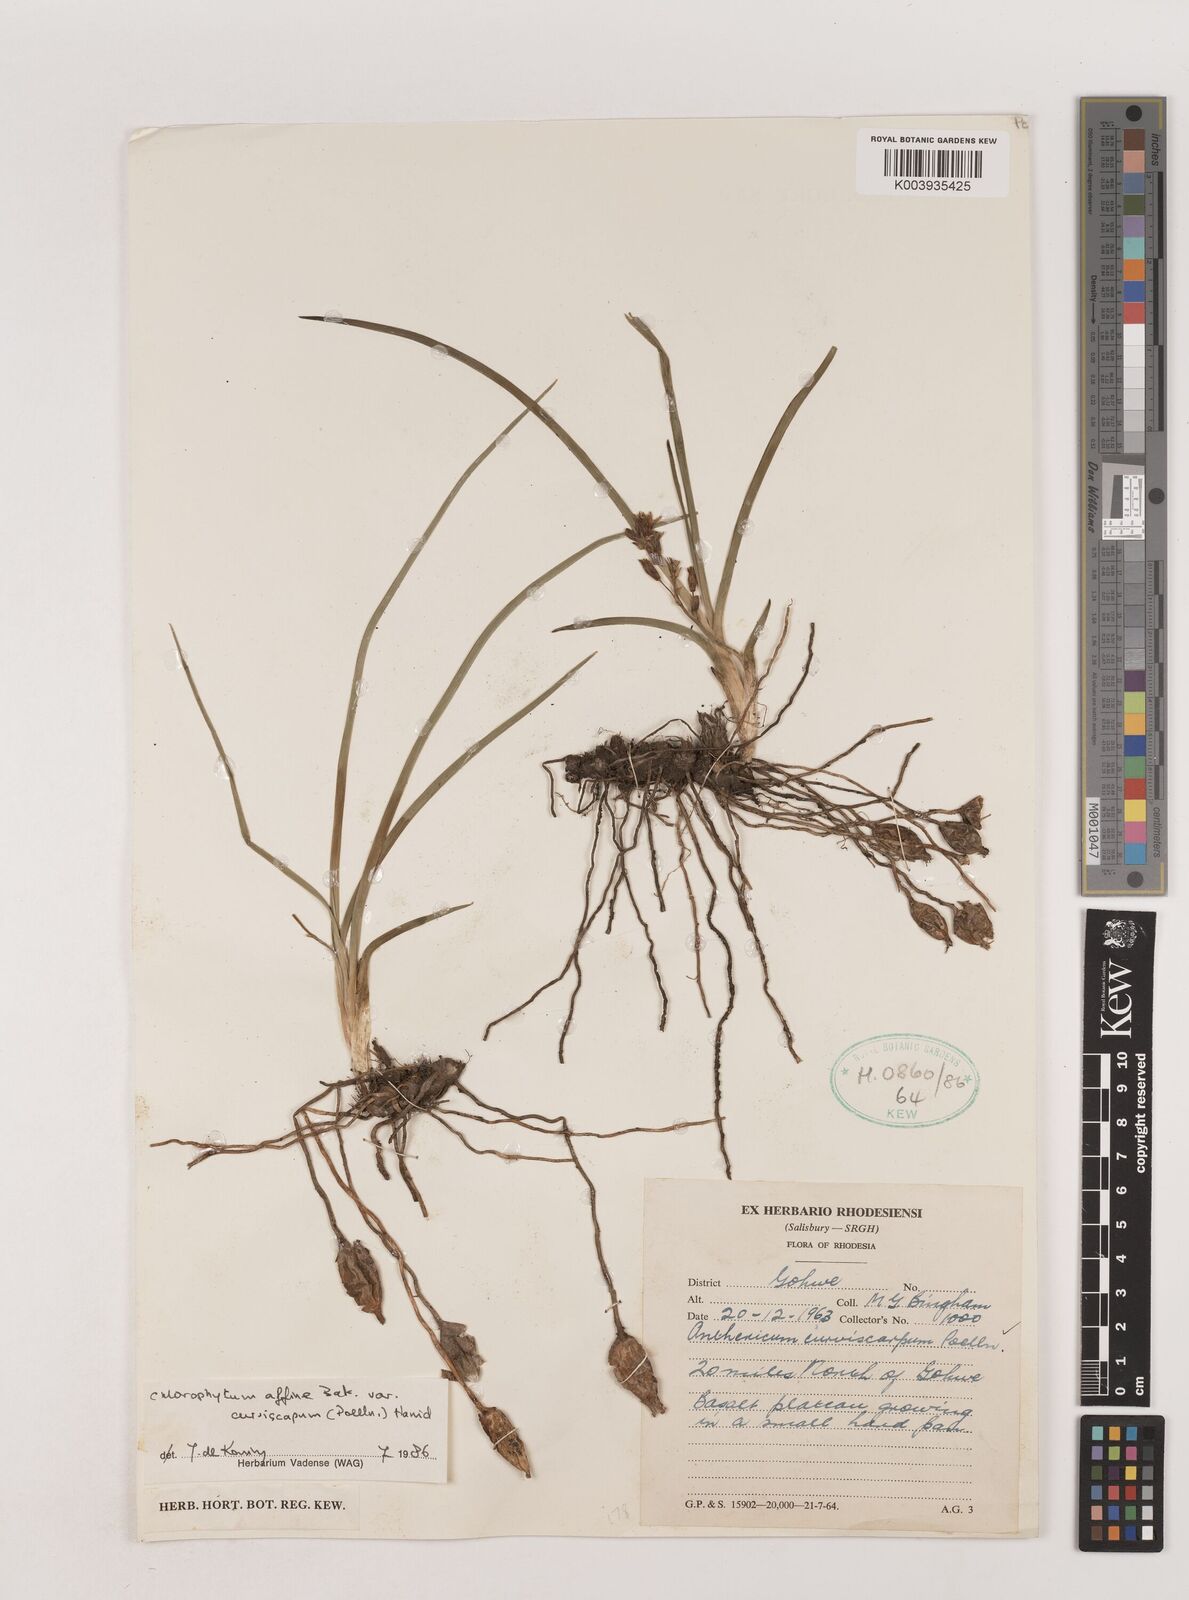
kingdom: Plantae
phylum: Tracheophyta
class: Liliopsida
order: Asparagales
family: Asparagaceae
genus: Chlorophytum
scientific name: Chlorophytum tordense
